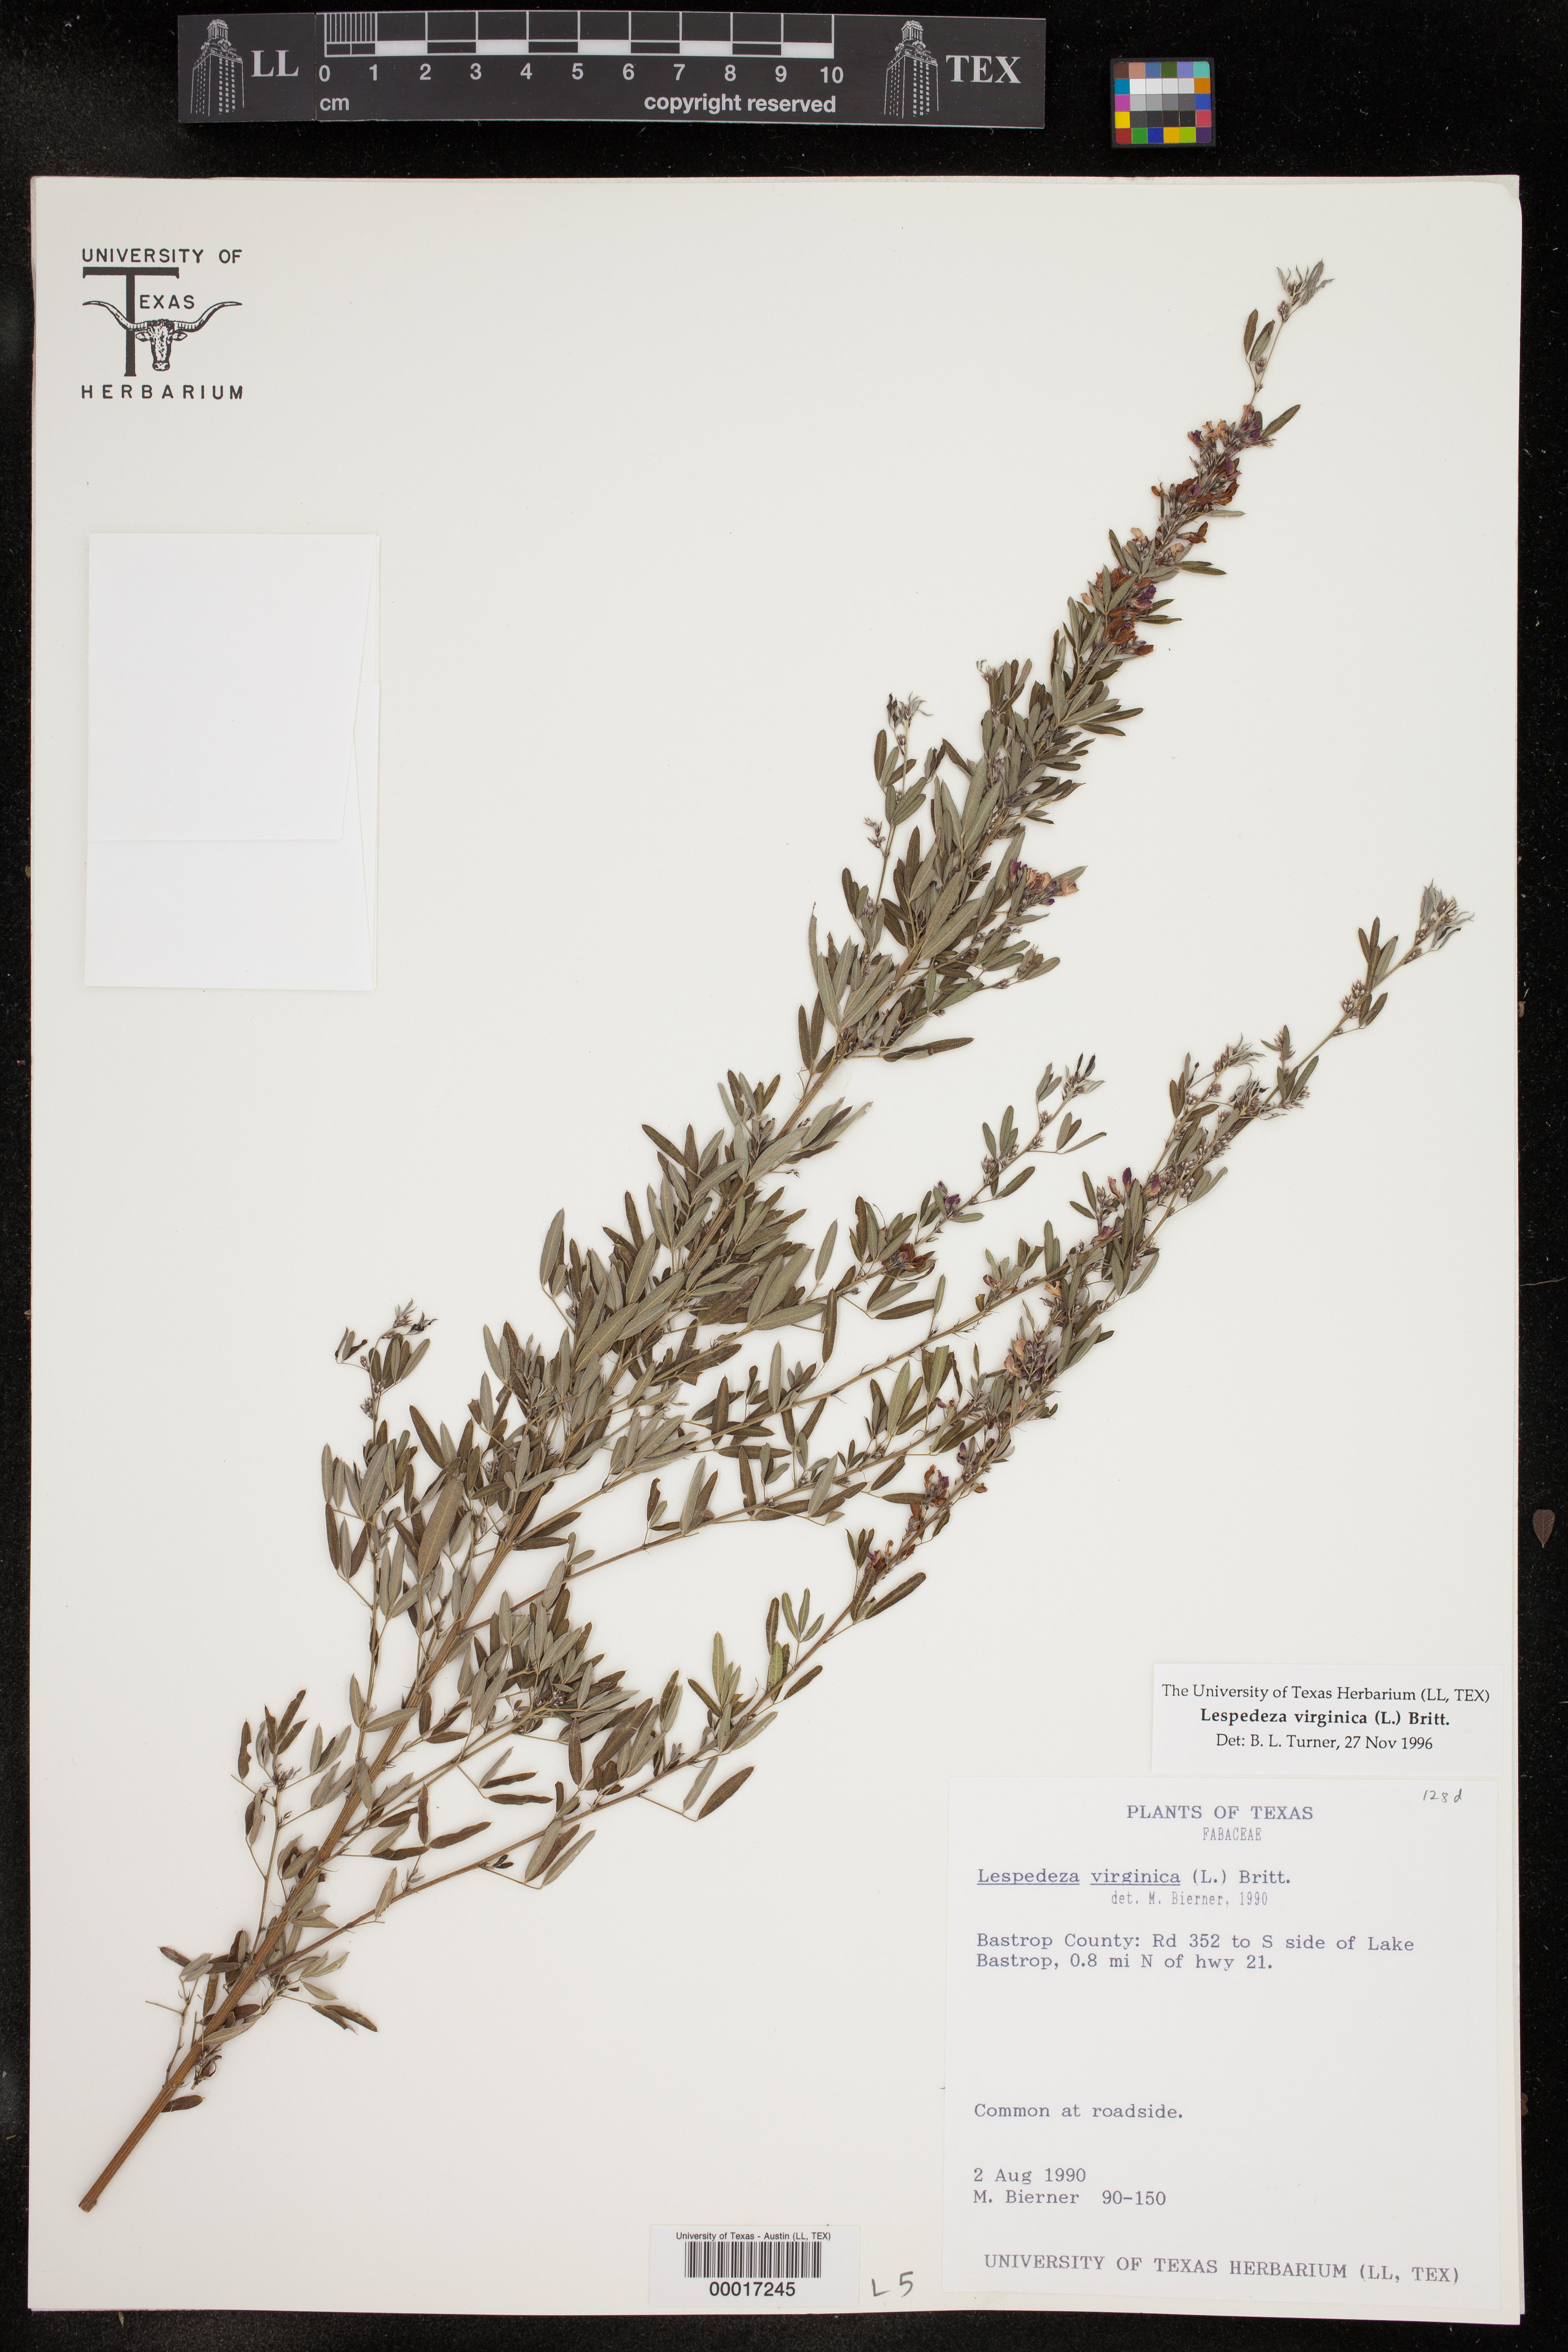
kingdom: Plantae
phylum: Tracheophyta
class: Magnoliopsida
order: Fabales
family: Fabaceae
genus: Lespedeza
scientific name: Lespedeza virginica
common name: Slender bush-clover
